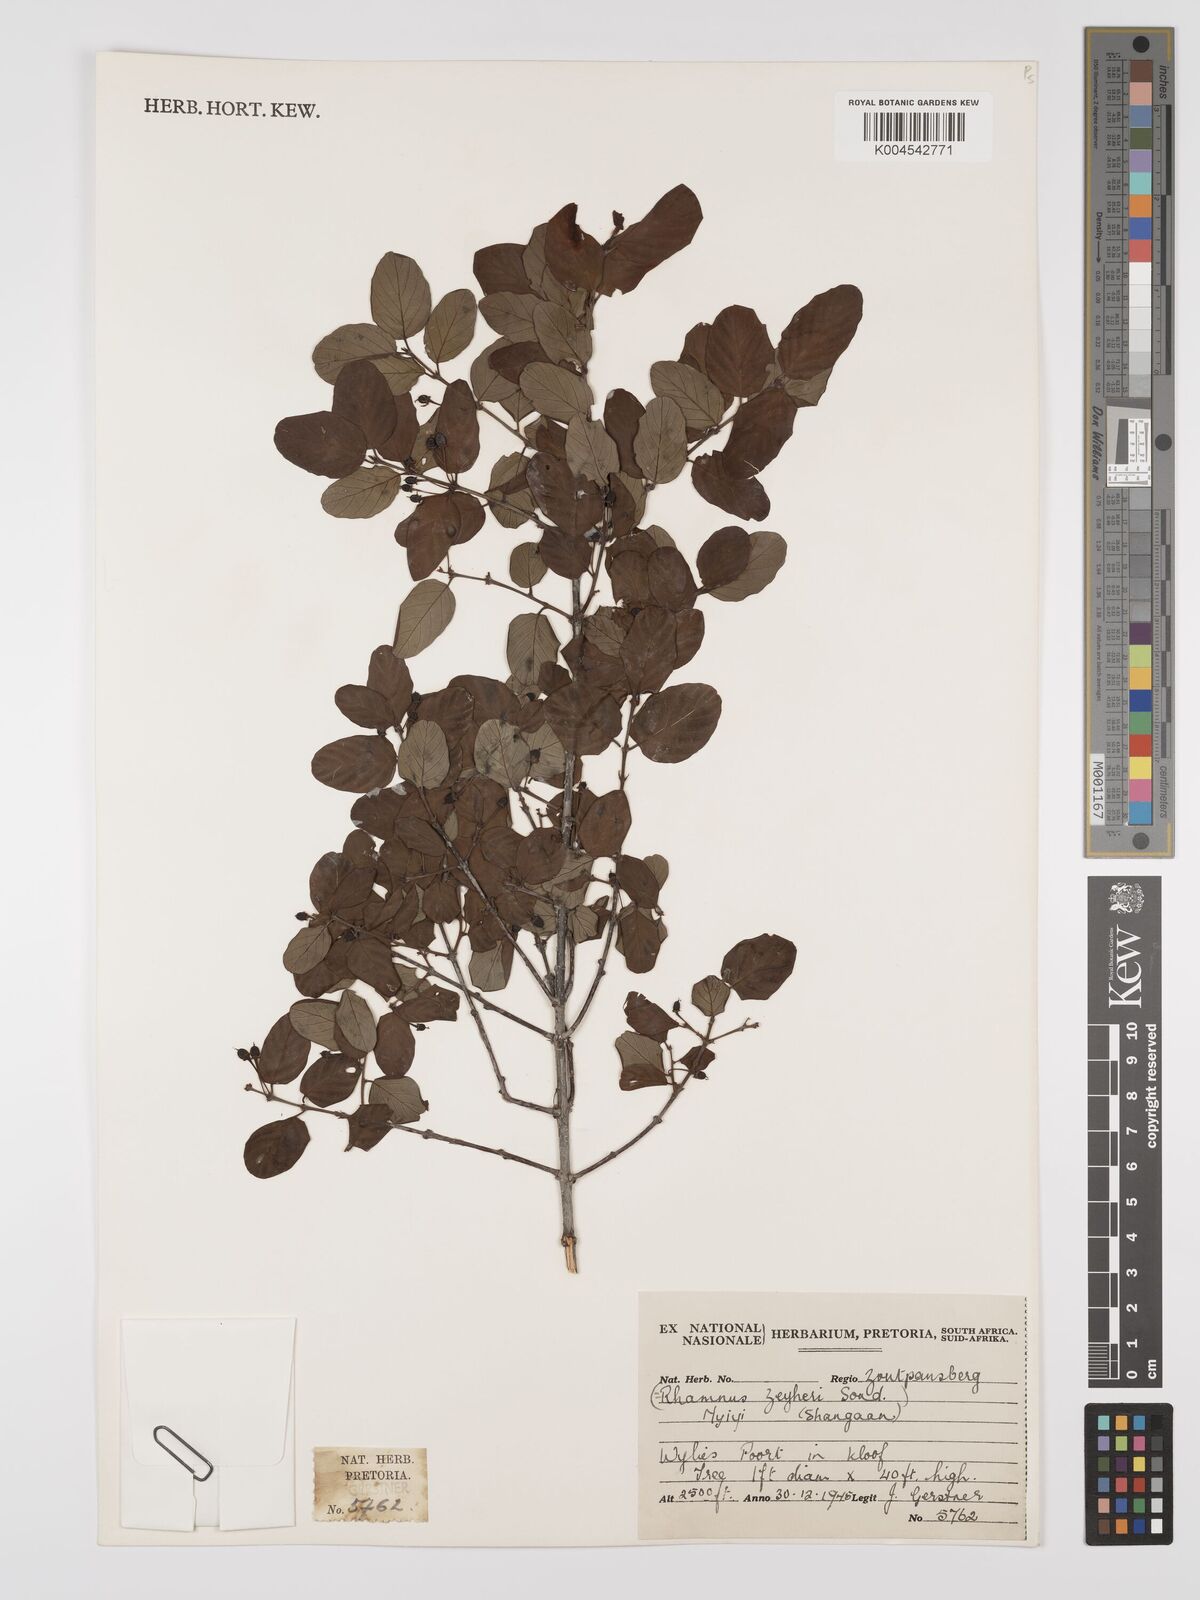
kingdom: Plantae
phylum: Tracheophyta
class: Magnoliopsida
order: Rosales
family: Rhamnaceae
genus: Phyllogeiton
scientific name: Phyllogeiton zeyheri
